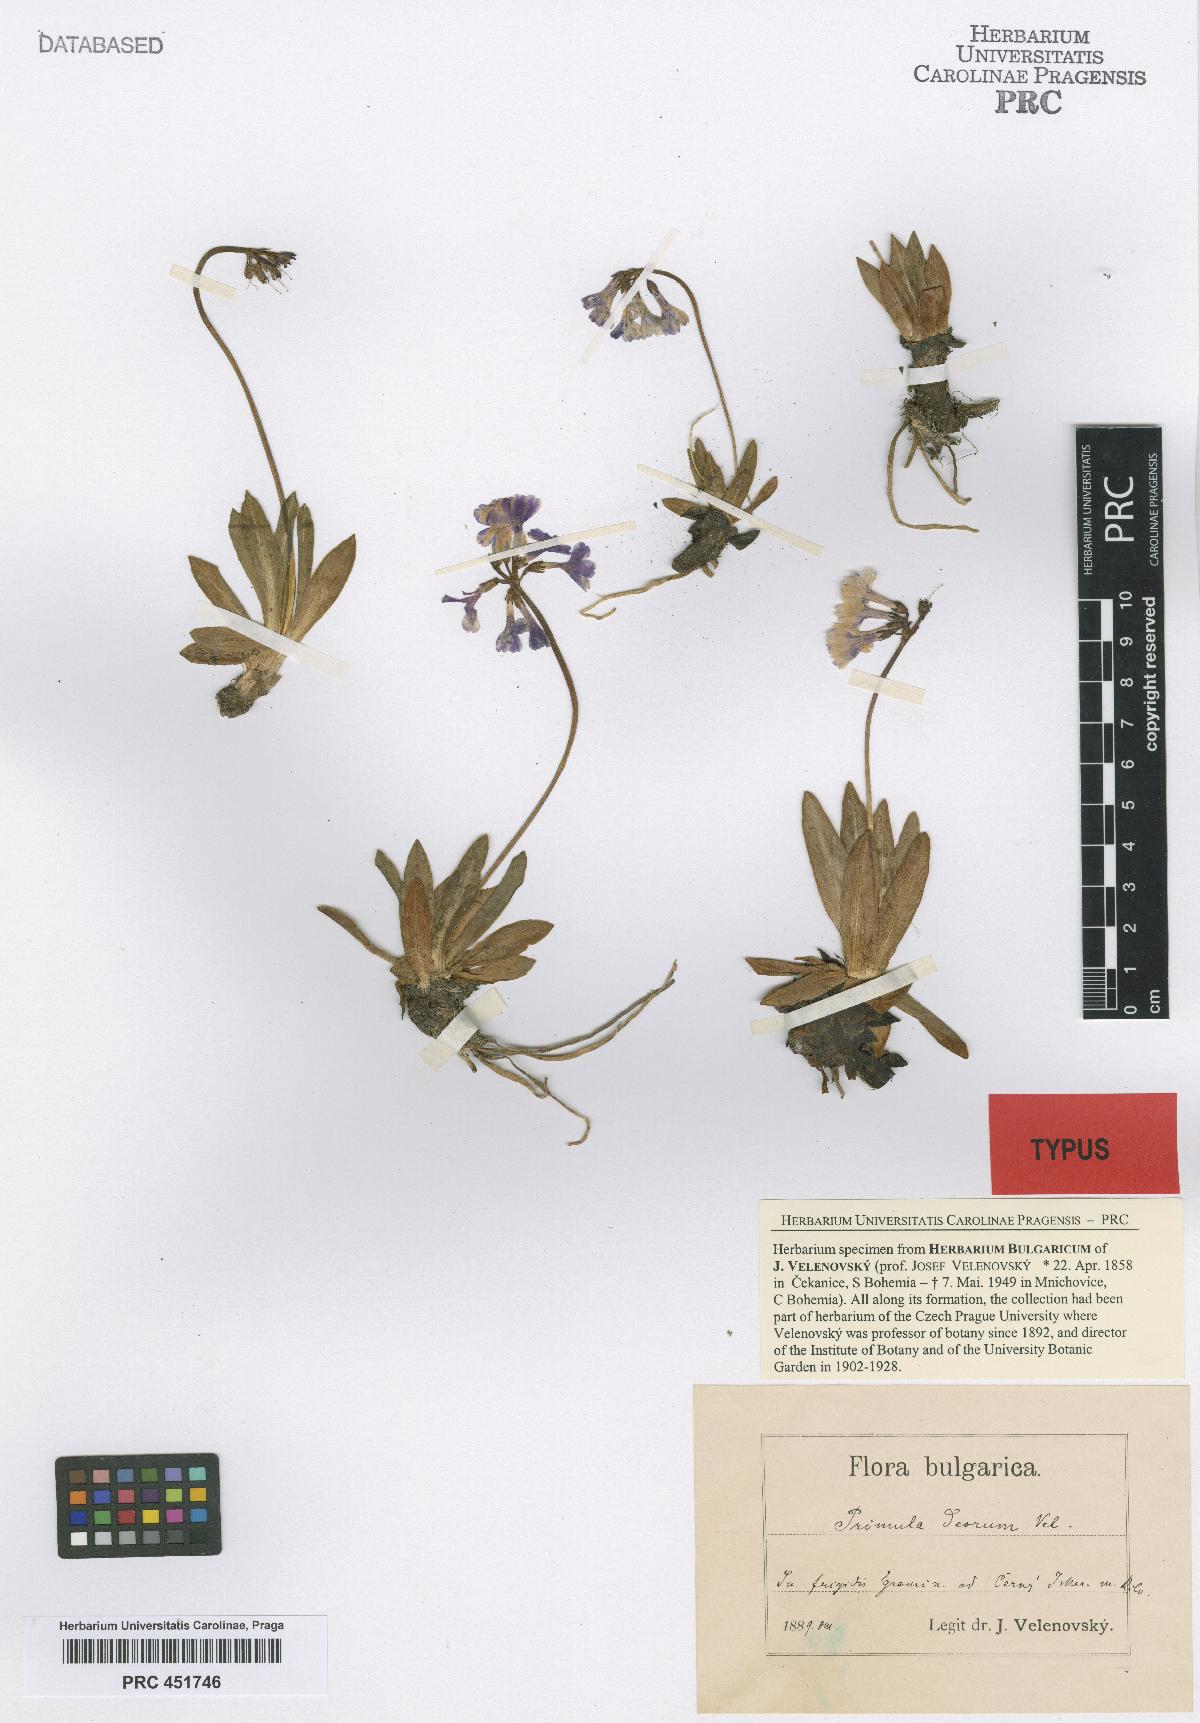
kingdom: Plantae
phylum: Tracheophyta
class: Magnoliopsida
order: Ericales
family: Primulaceae
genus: Primula
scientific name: Primula deorum
